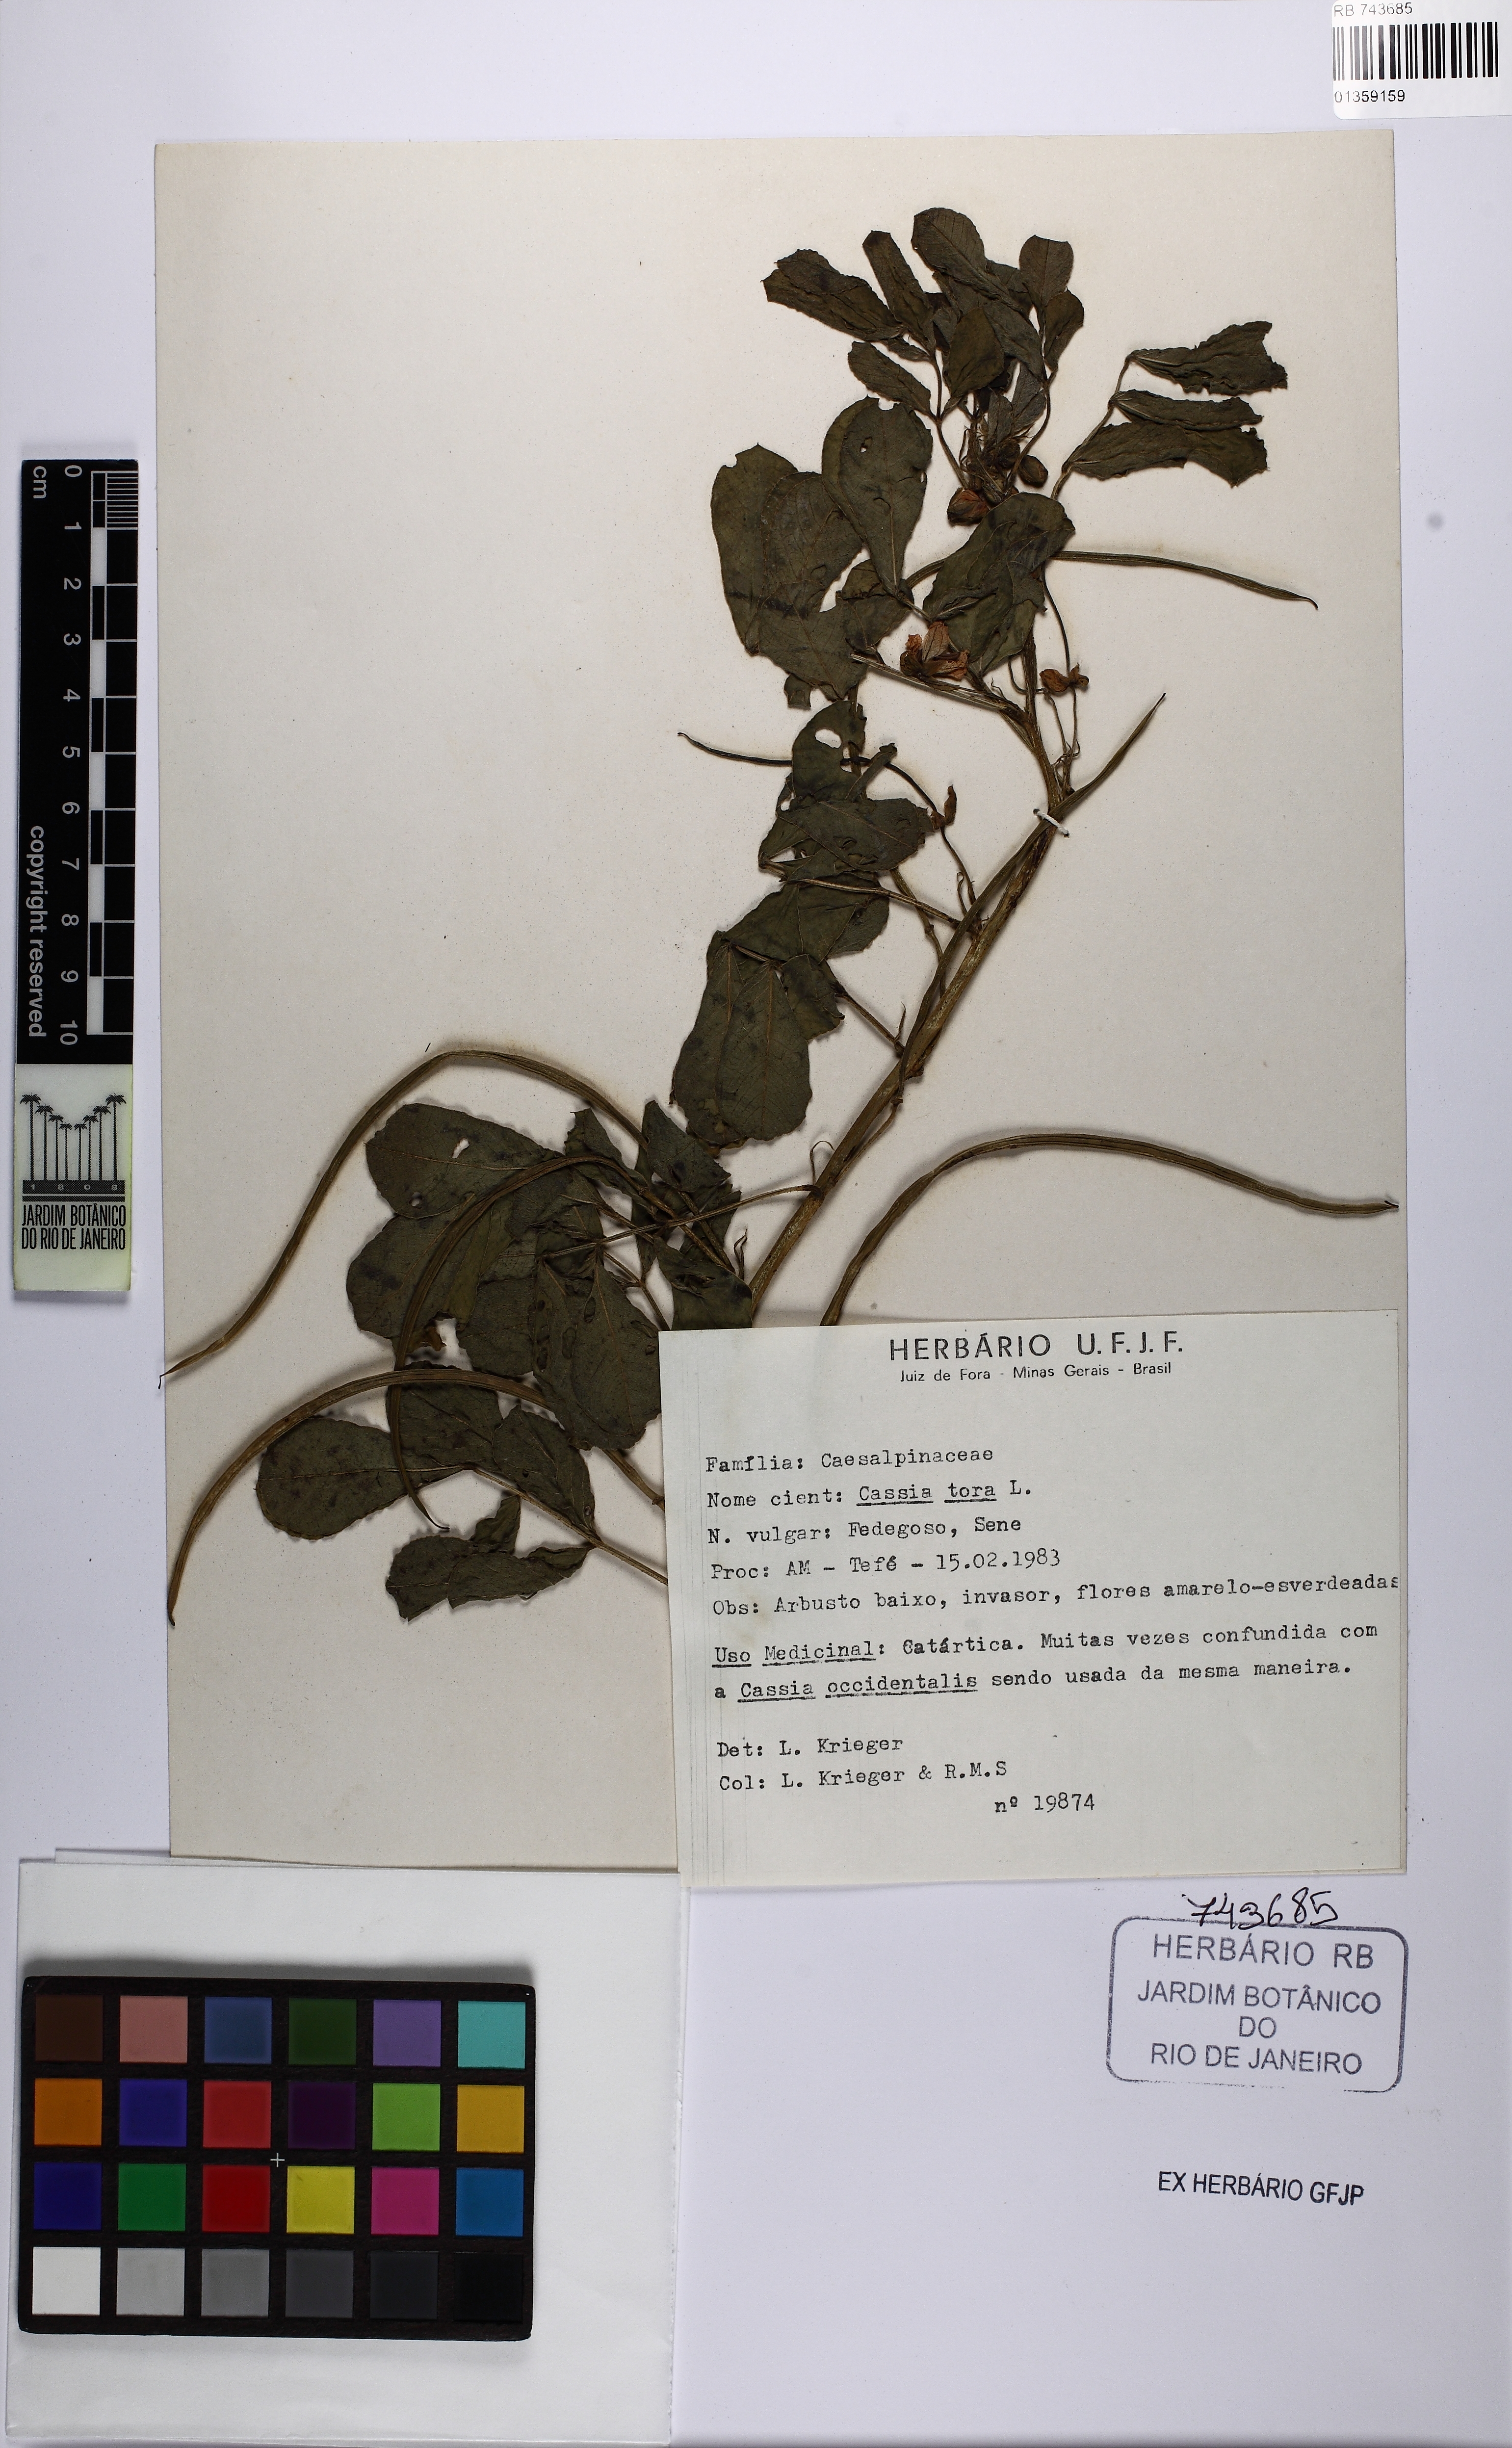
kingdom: Plantae
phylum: Tracheophyta
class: Magnoliopsida
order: Fabales
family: Fabaceae
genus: Senna
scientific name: Senna tora
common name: Sickle senna
